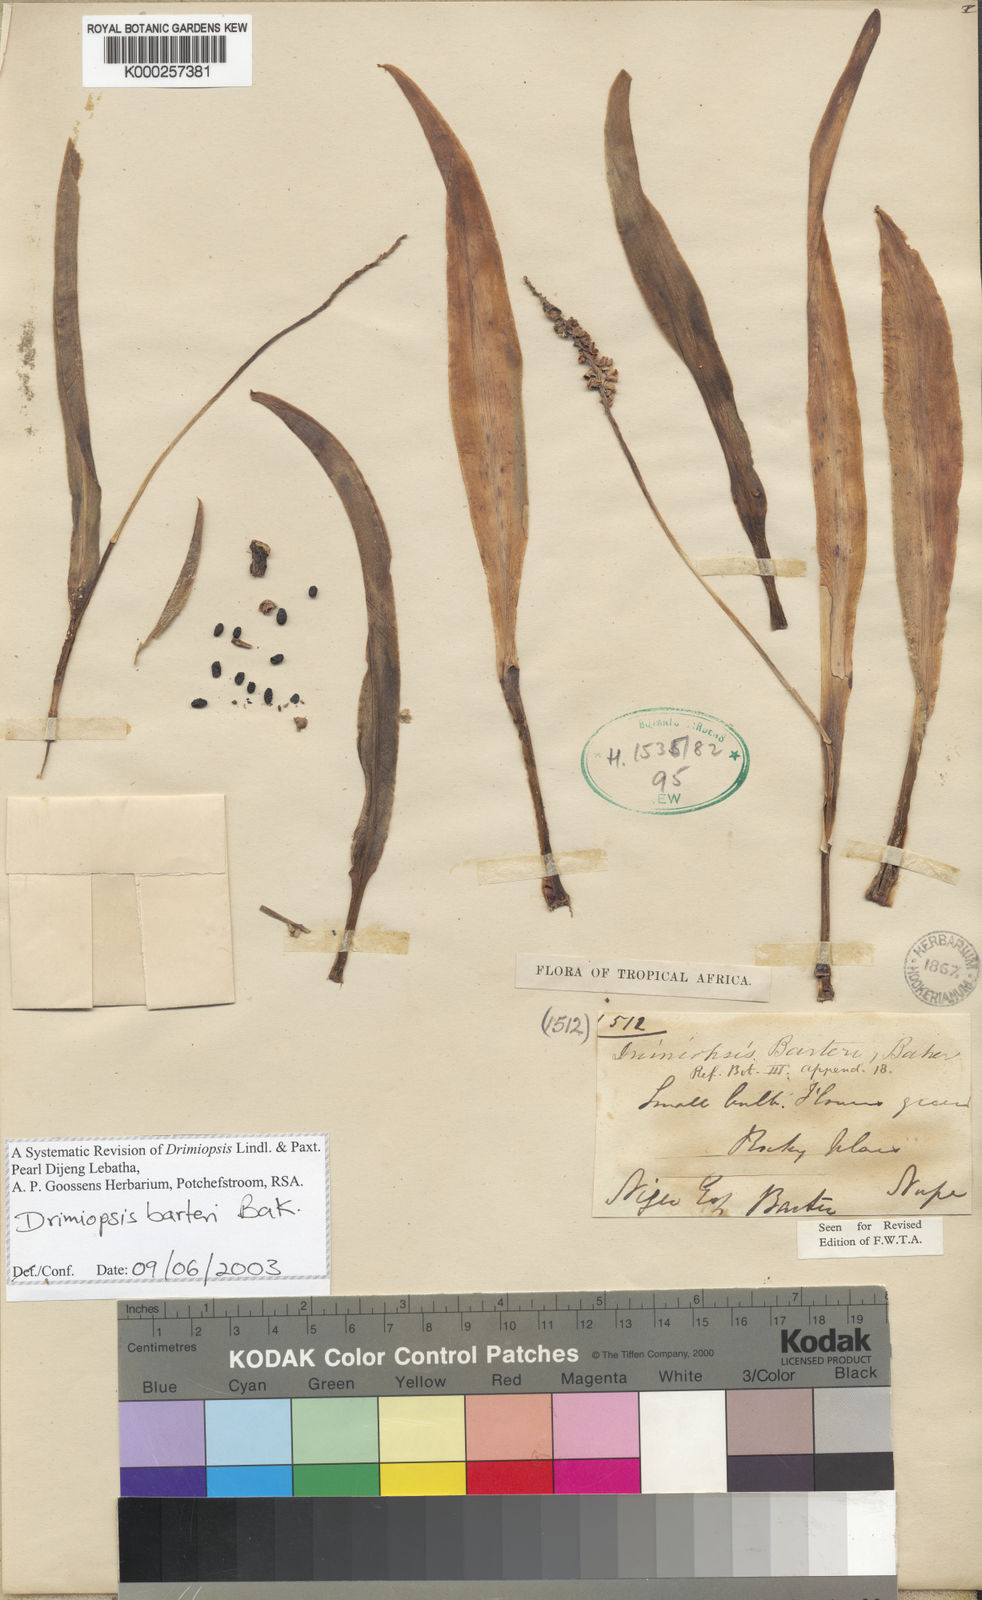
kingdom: Plantae
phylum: Tracheophyta
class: Liliopsida
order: Asparagales
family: Asparagaceae
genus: Drimiopsis
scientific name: Drimiopsis barteri
